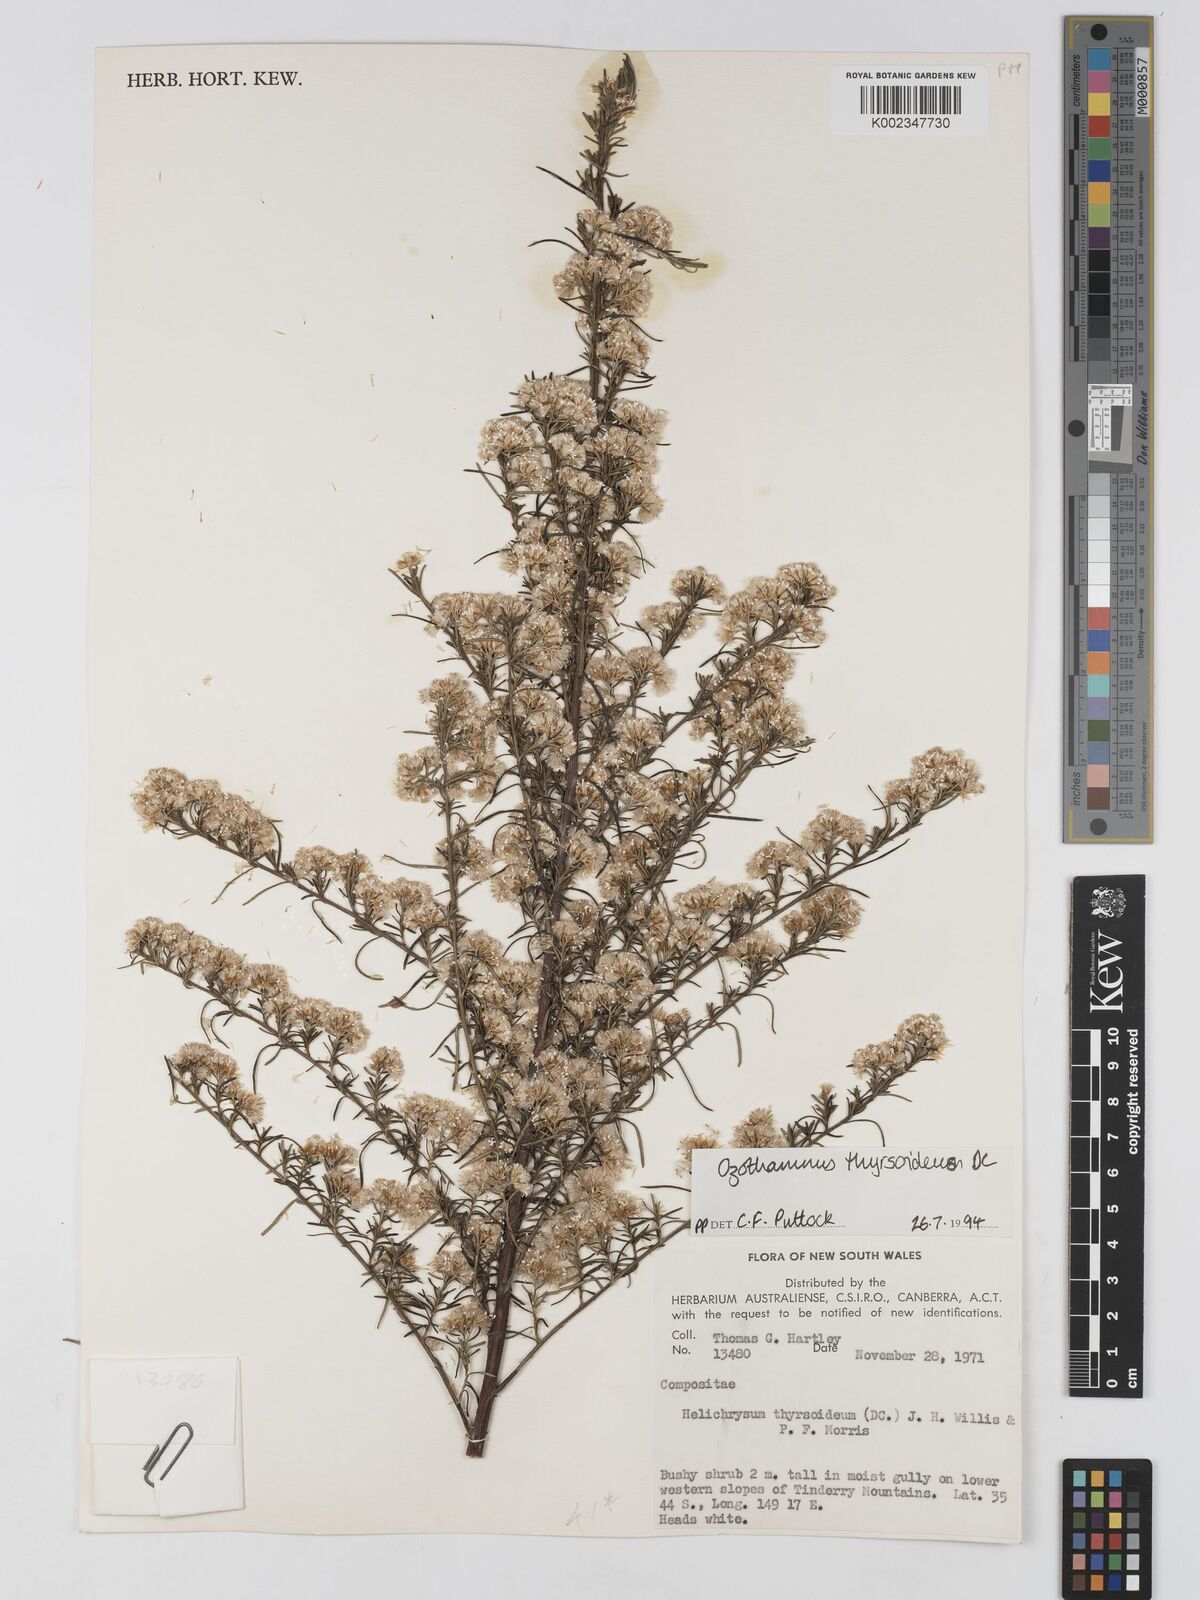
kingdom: Plantae
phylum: Tracheophyta
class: Magnoliopsida
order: Asterales
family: Asteraceae
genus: Ozothamnus
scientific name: Ozothamnus thyrsoideus
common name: Snow-in-summer
